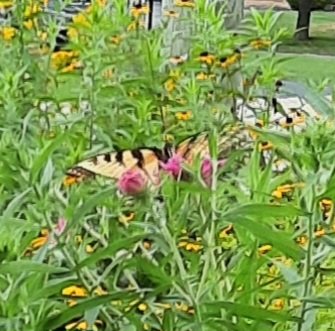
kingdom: Animalia
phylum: Arthropoda
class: Insecta
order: Lepidoptera
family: Papilionidae
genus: Pterourus
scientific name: Pterourus glaucus
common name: Eastern Tiger Swallowtail
